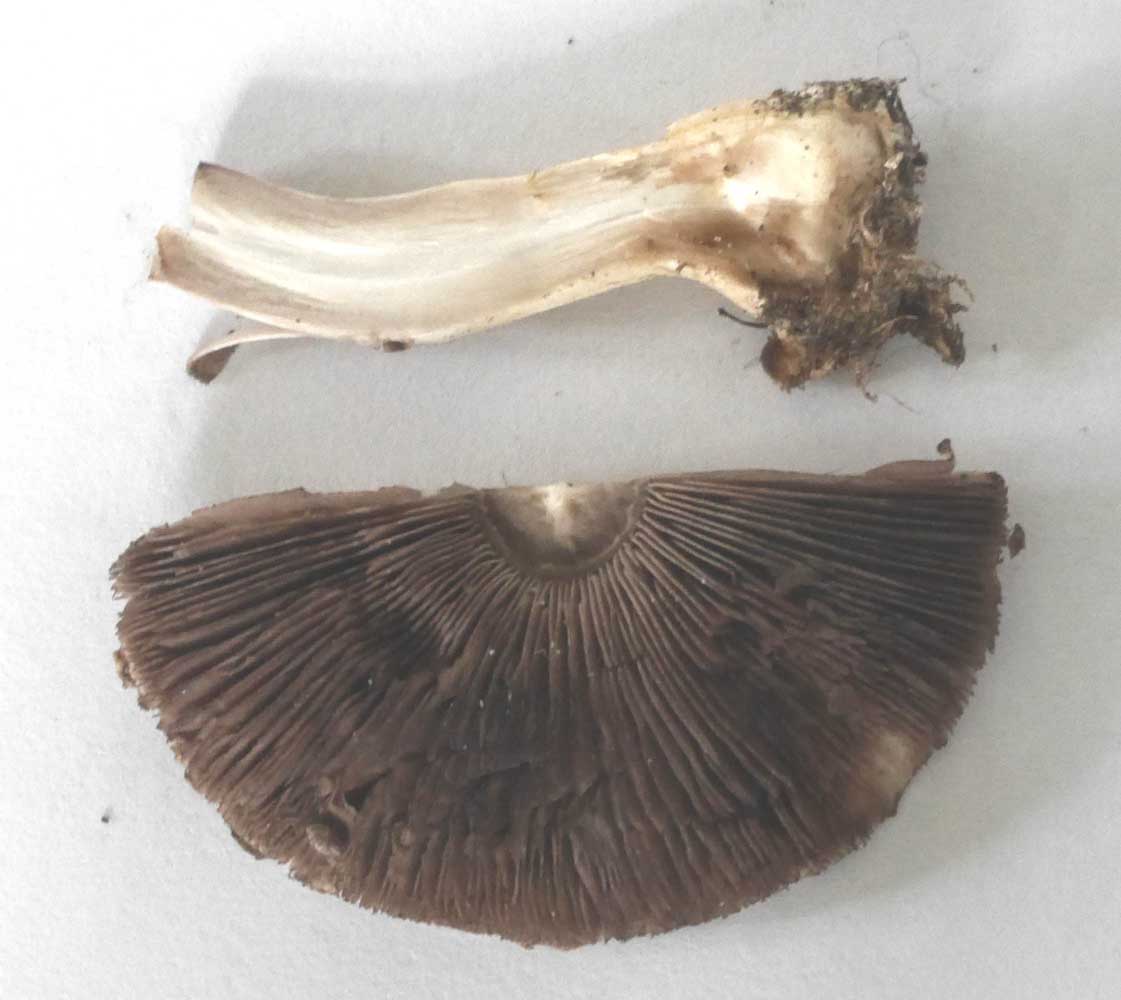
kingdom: Fungi
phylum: Basidiomycota
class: Agaricomycetes
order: Agaricales
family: Agaricaceae
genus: Agaricus
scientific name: Agaricus
